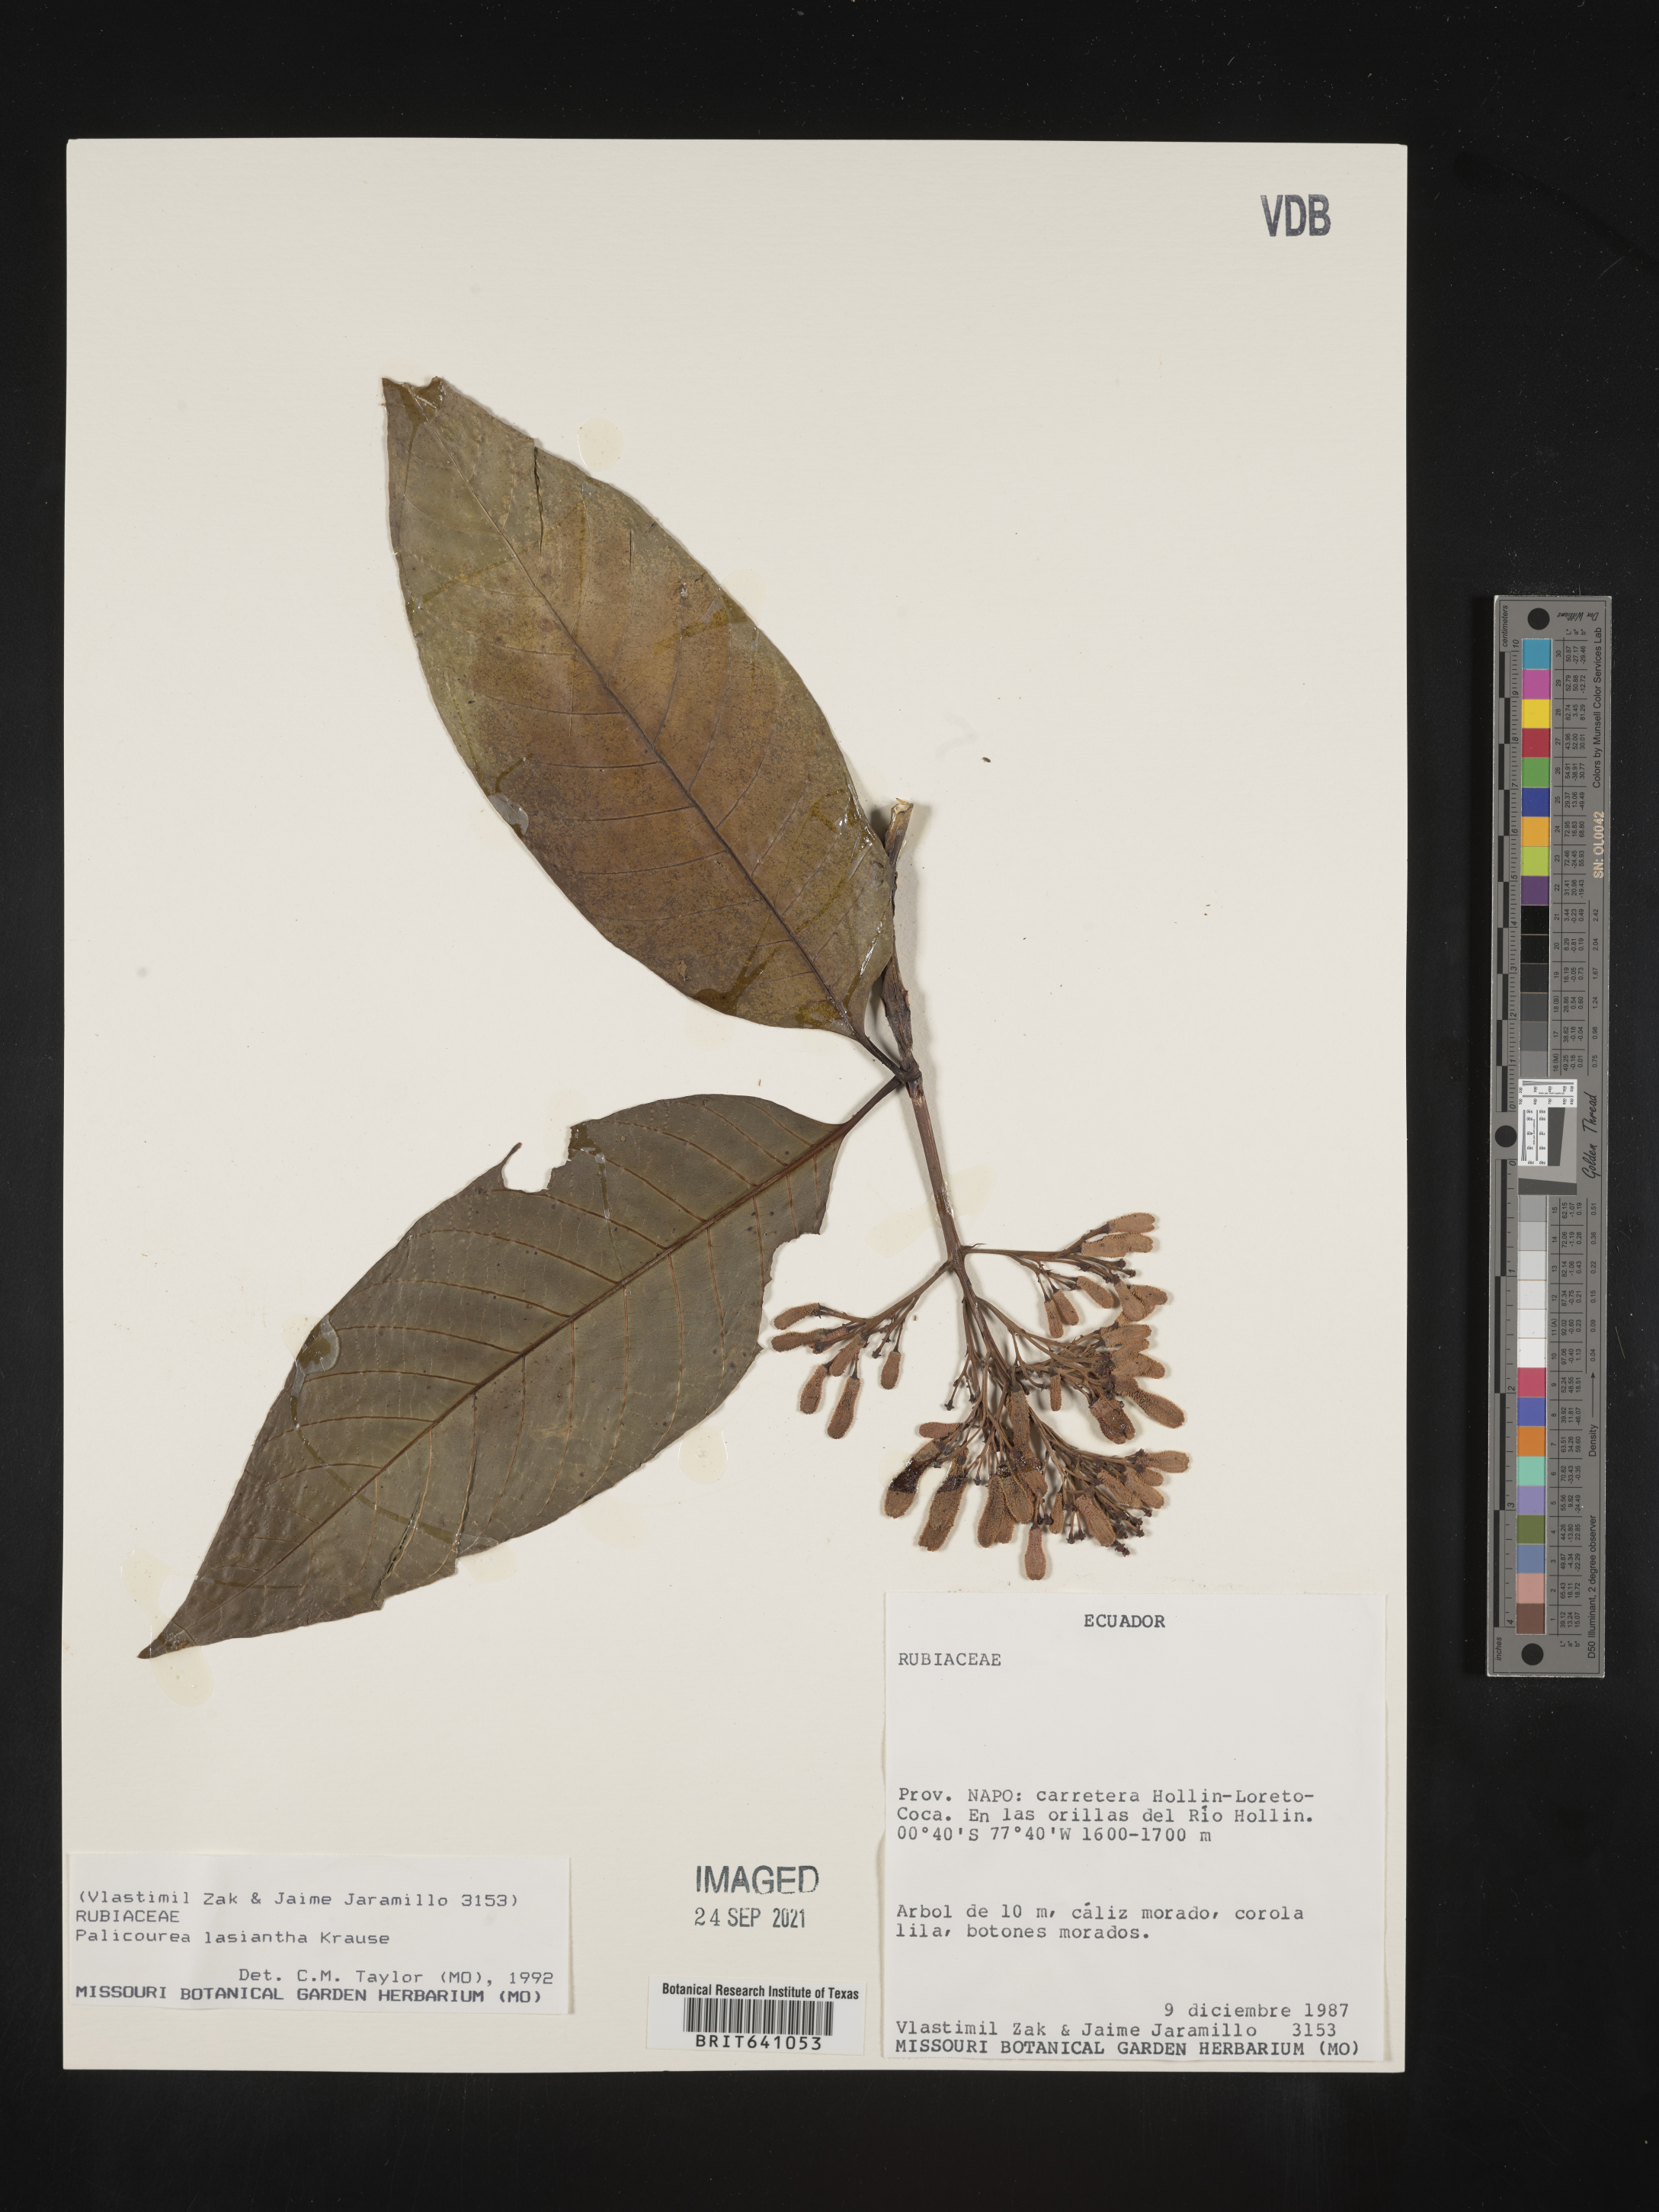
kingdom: Plantae
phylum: Tracheophyta
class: Magnoliopsida
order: Gentianales
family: Rubiaceae
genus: Palicourea
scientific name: Palicourea
